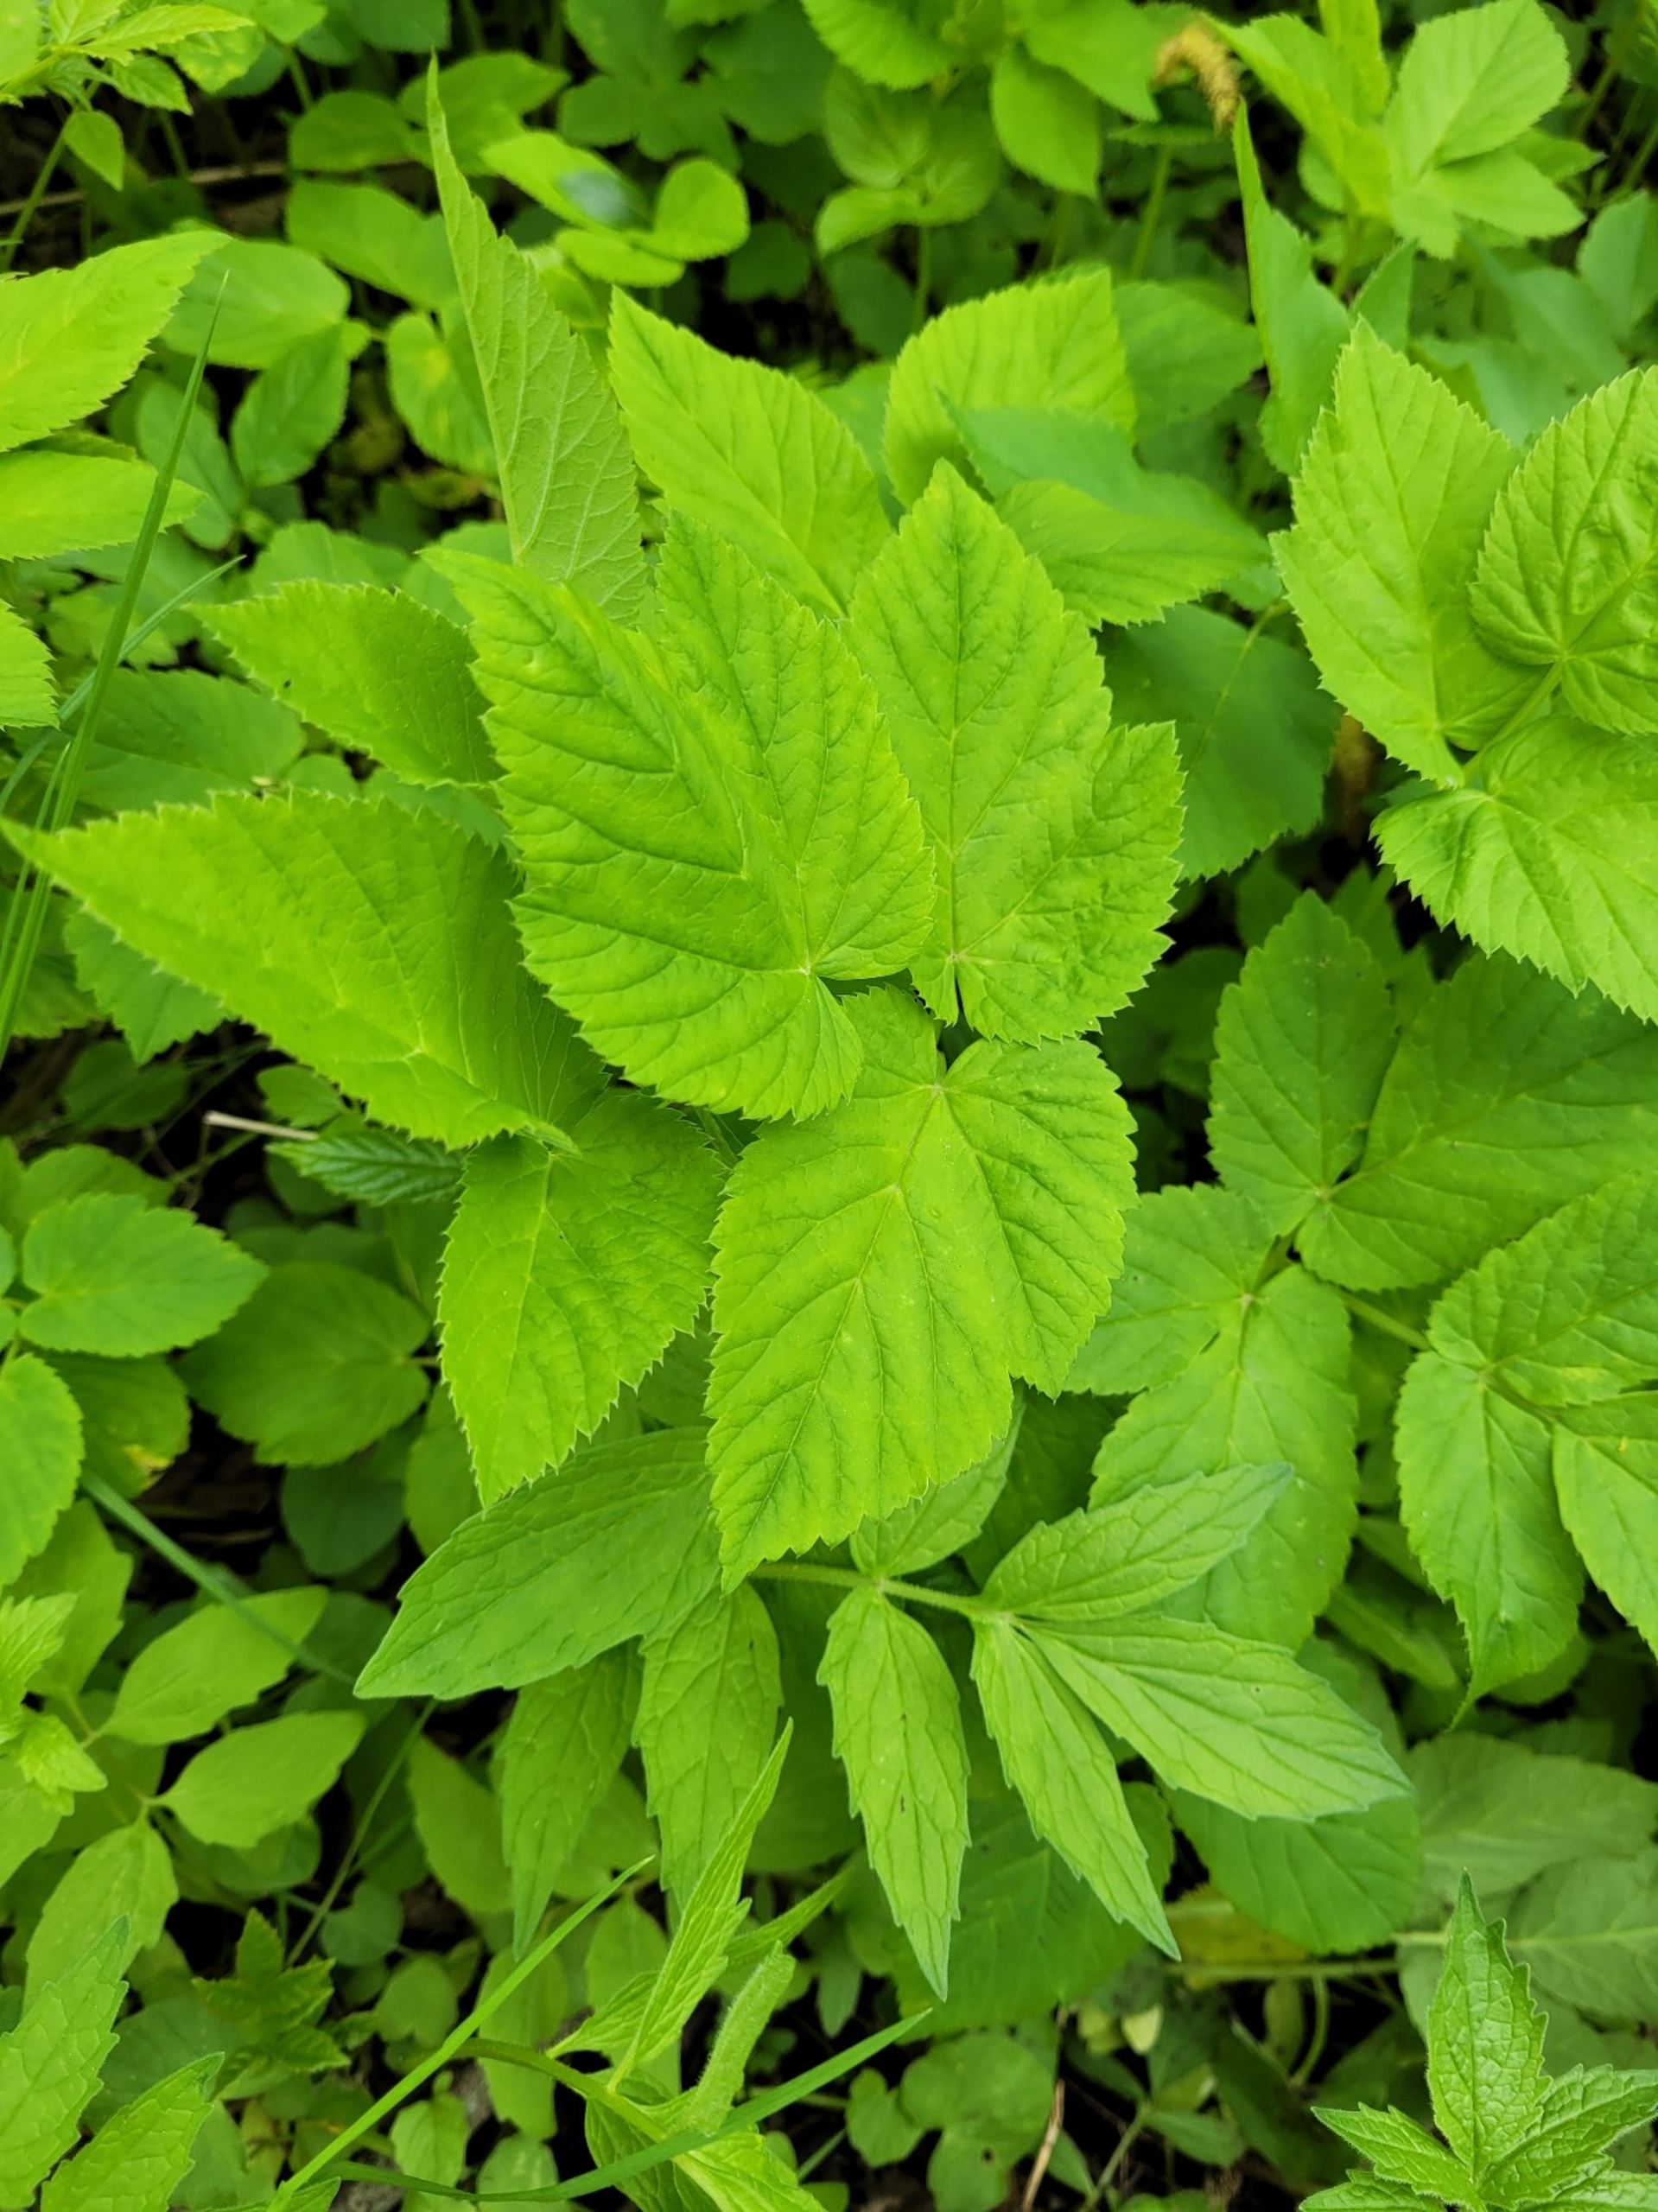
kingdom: Plantae
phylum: Tracheophyta
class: Magnoliopsida
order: Apiales
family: Apiaceae
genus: Aegopodium
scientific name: Aegopodium podagraria
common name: Skvalderkål
